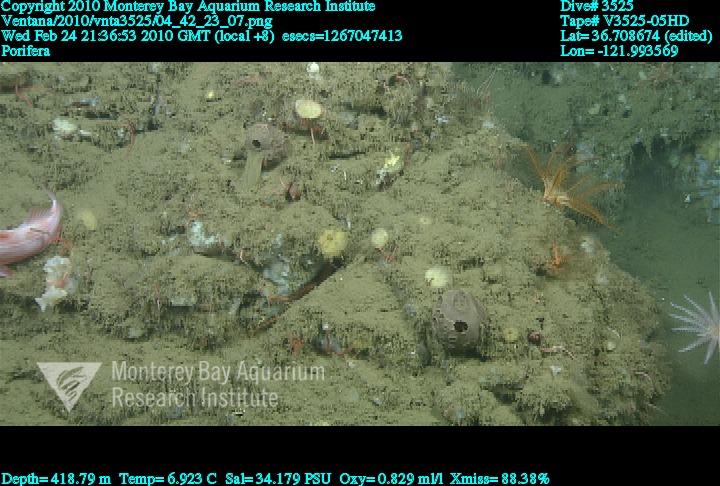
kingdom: Animalia
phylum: Porifera
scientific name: Porifera
